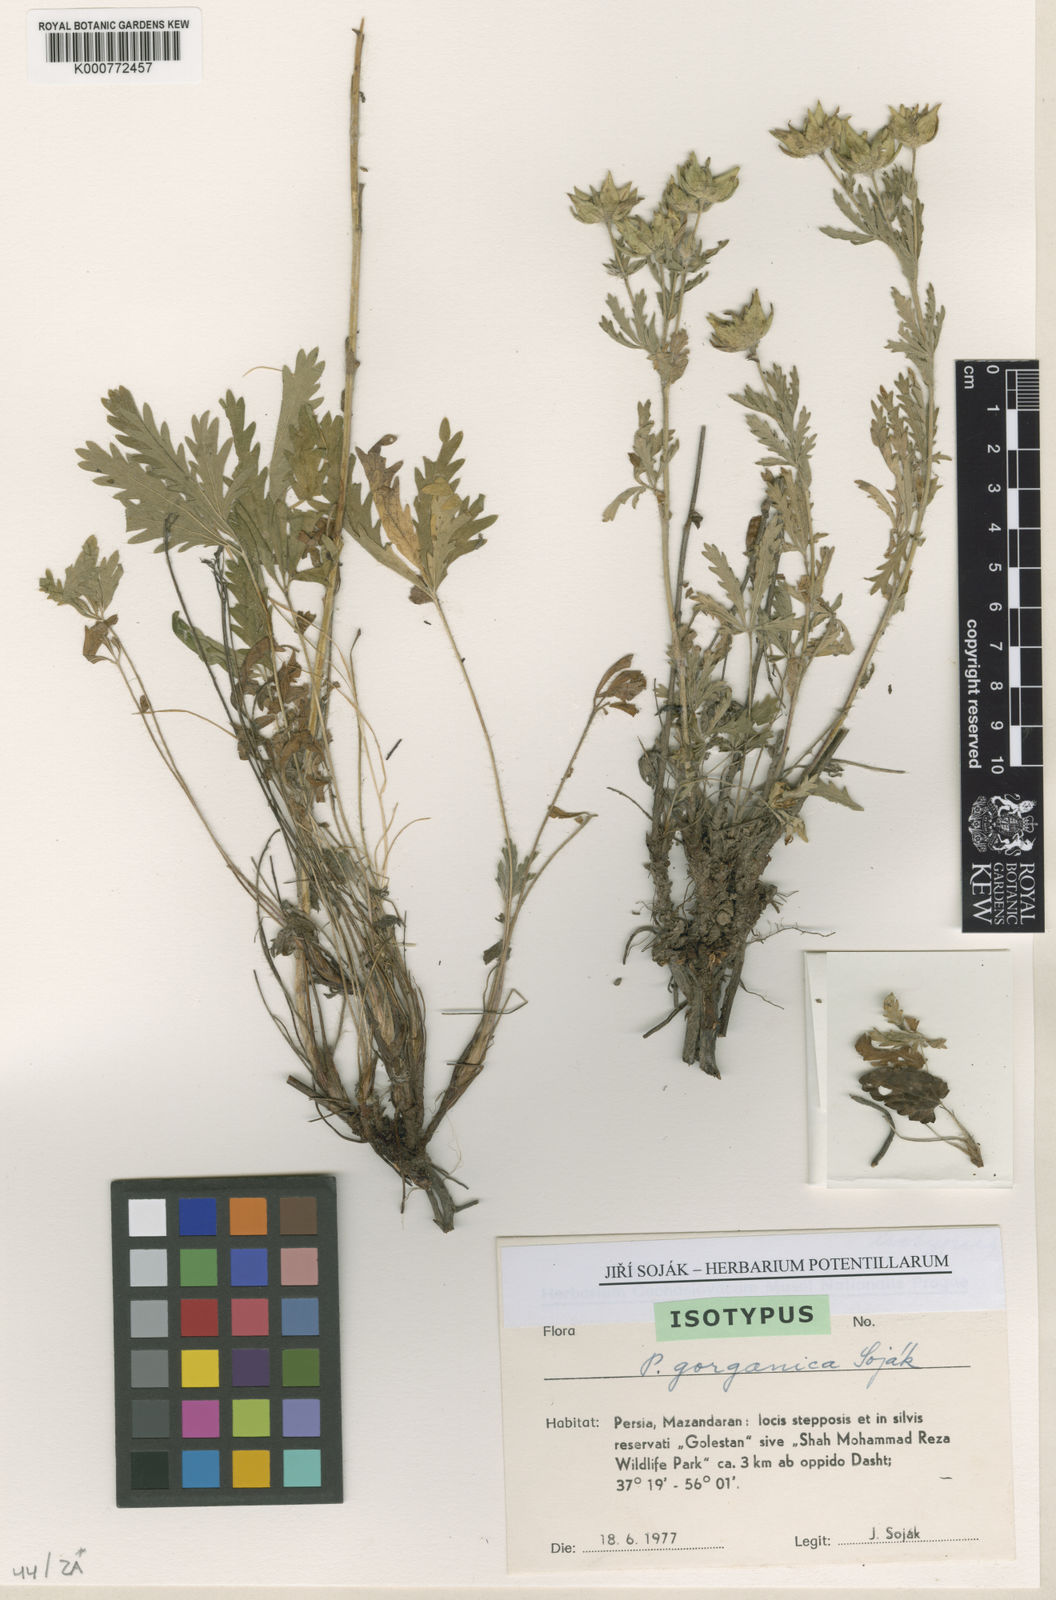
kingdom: Plantae
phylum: Tracheophyta
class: Magnoliopsida
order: Rosales
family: Rosaceae
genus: Potentilla
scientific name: Potentilla
